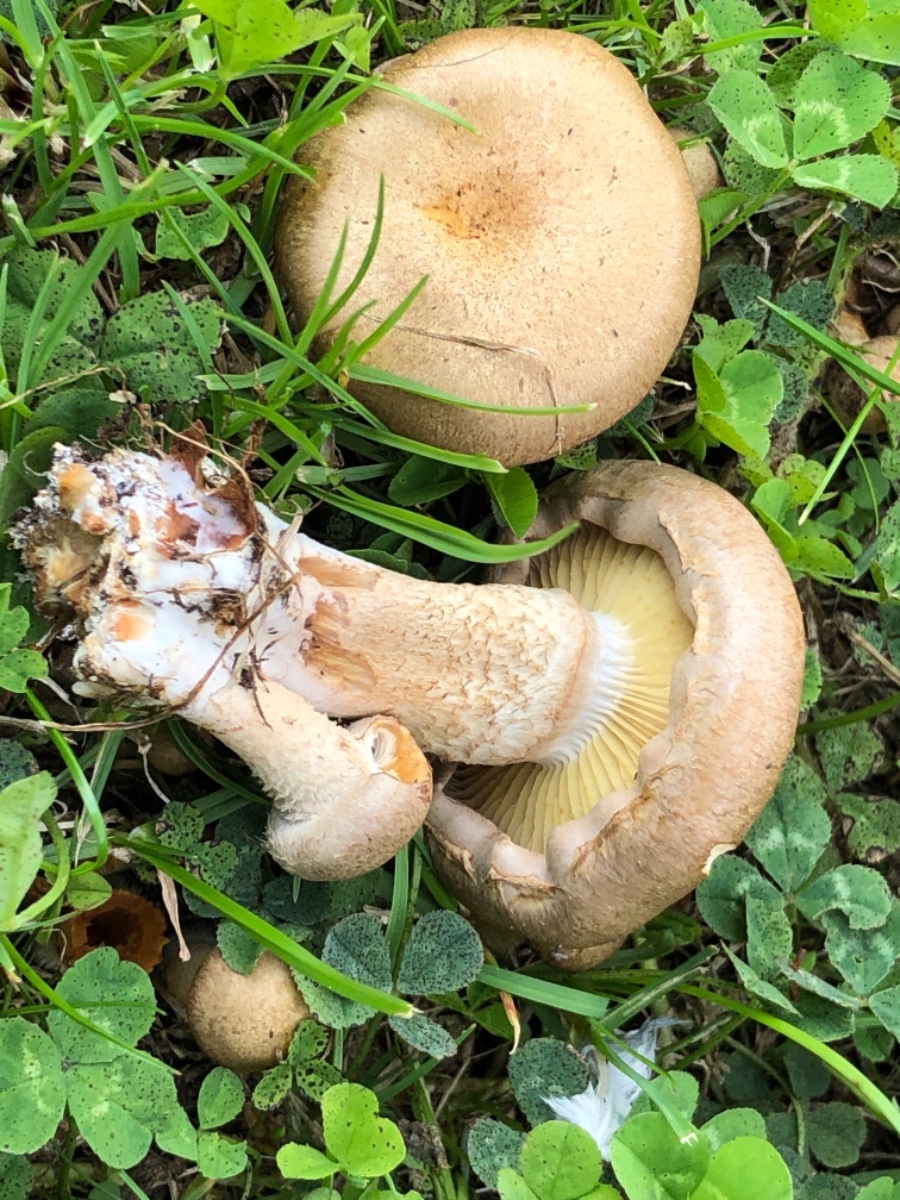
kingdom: Fungi
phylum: Basidiomycota
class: Agaricomycetes
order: Agaricales
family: Strophariaceae
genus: Pholiota
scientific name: Pholiota gummosa
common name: grøngul skælhat
